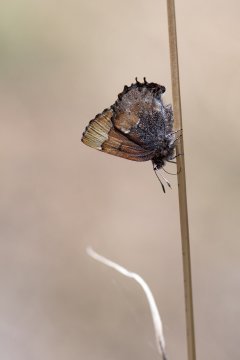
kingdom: Animalia
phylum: Arthropoda
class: Insecta
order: Lepidoptera
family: Lycaenidae
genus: Incisalia
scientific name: Incisalia henrici
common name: Henry's Elfin
